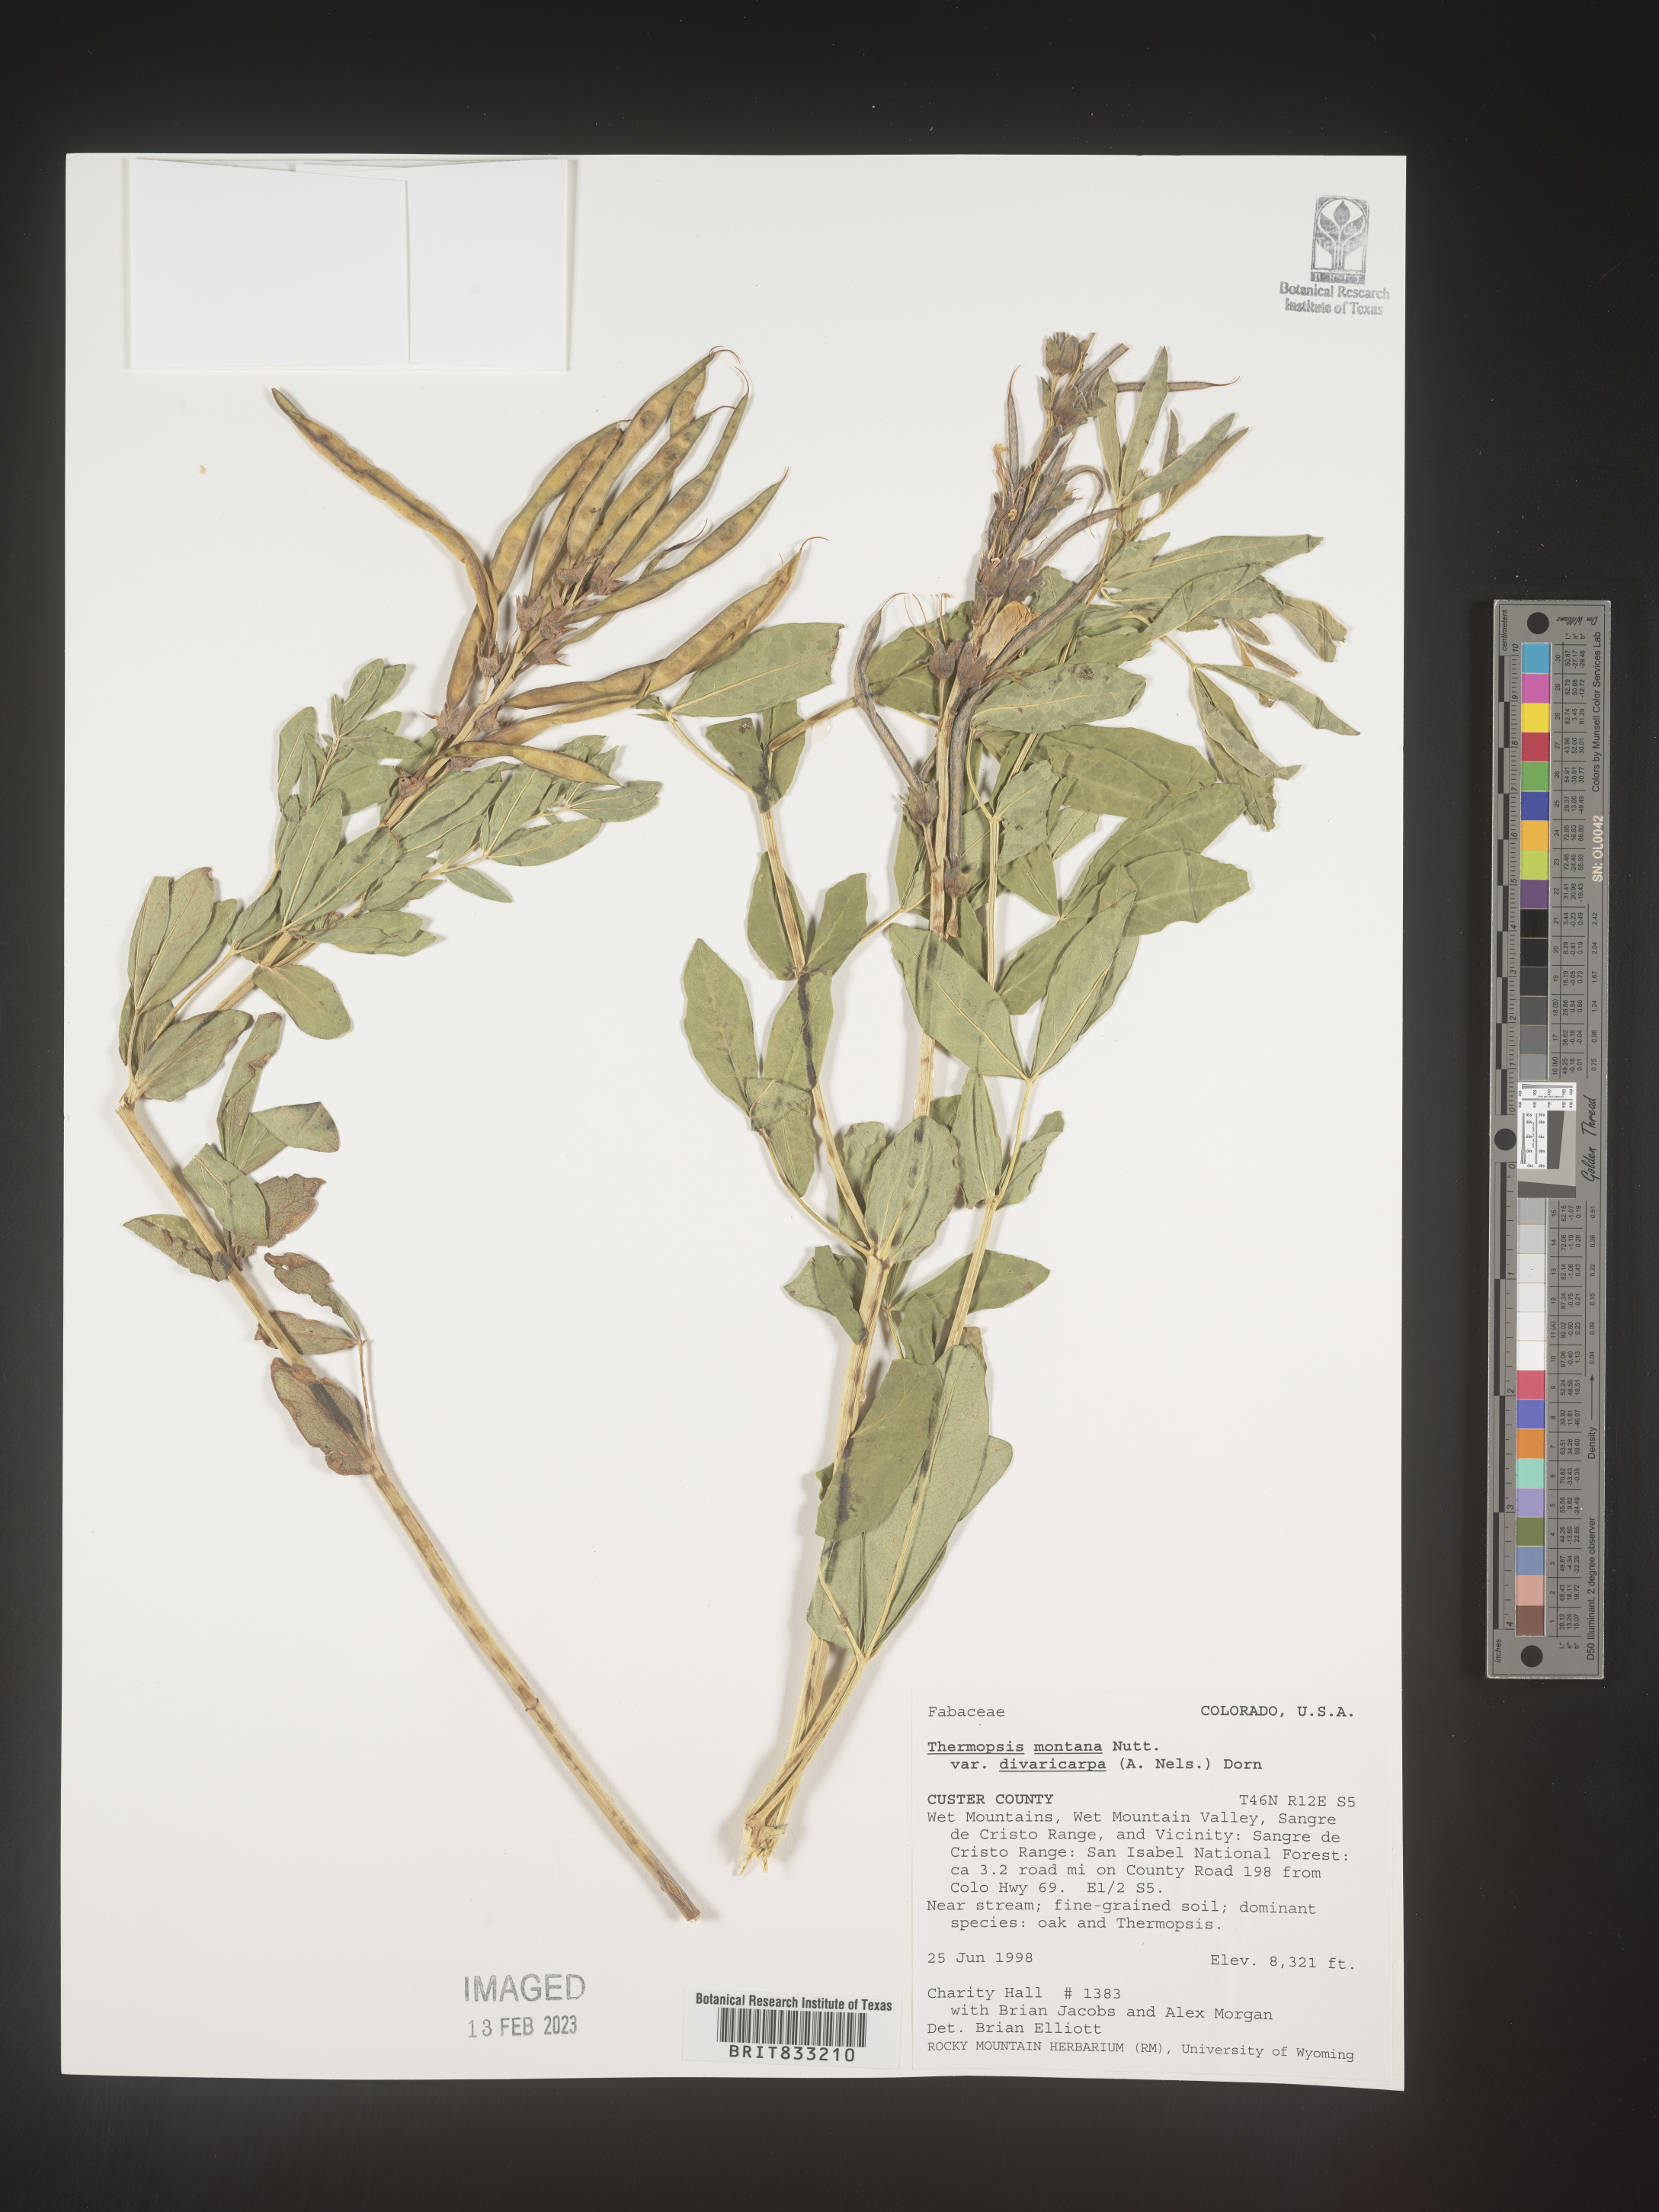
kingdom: Plantae
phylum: Tracheophyta
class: Magnoliopsida
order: Fabales
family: Fabaceae
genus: Thermopsis
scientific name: Thermopsis montana
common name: False lupin
